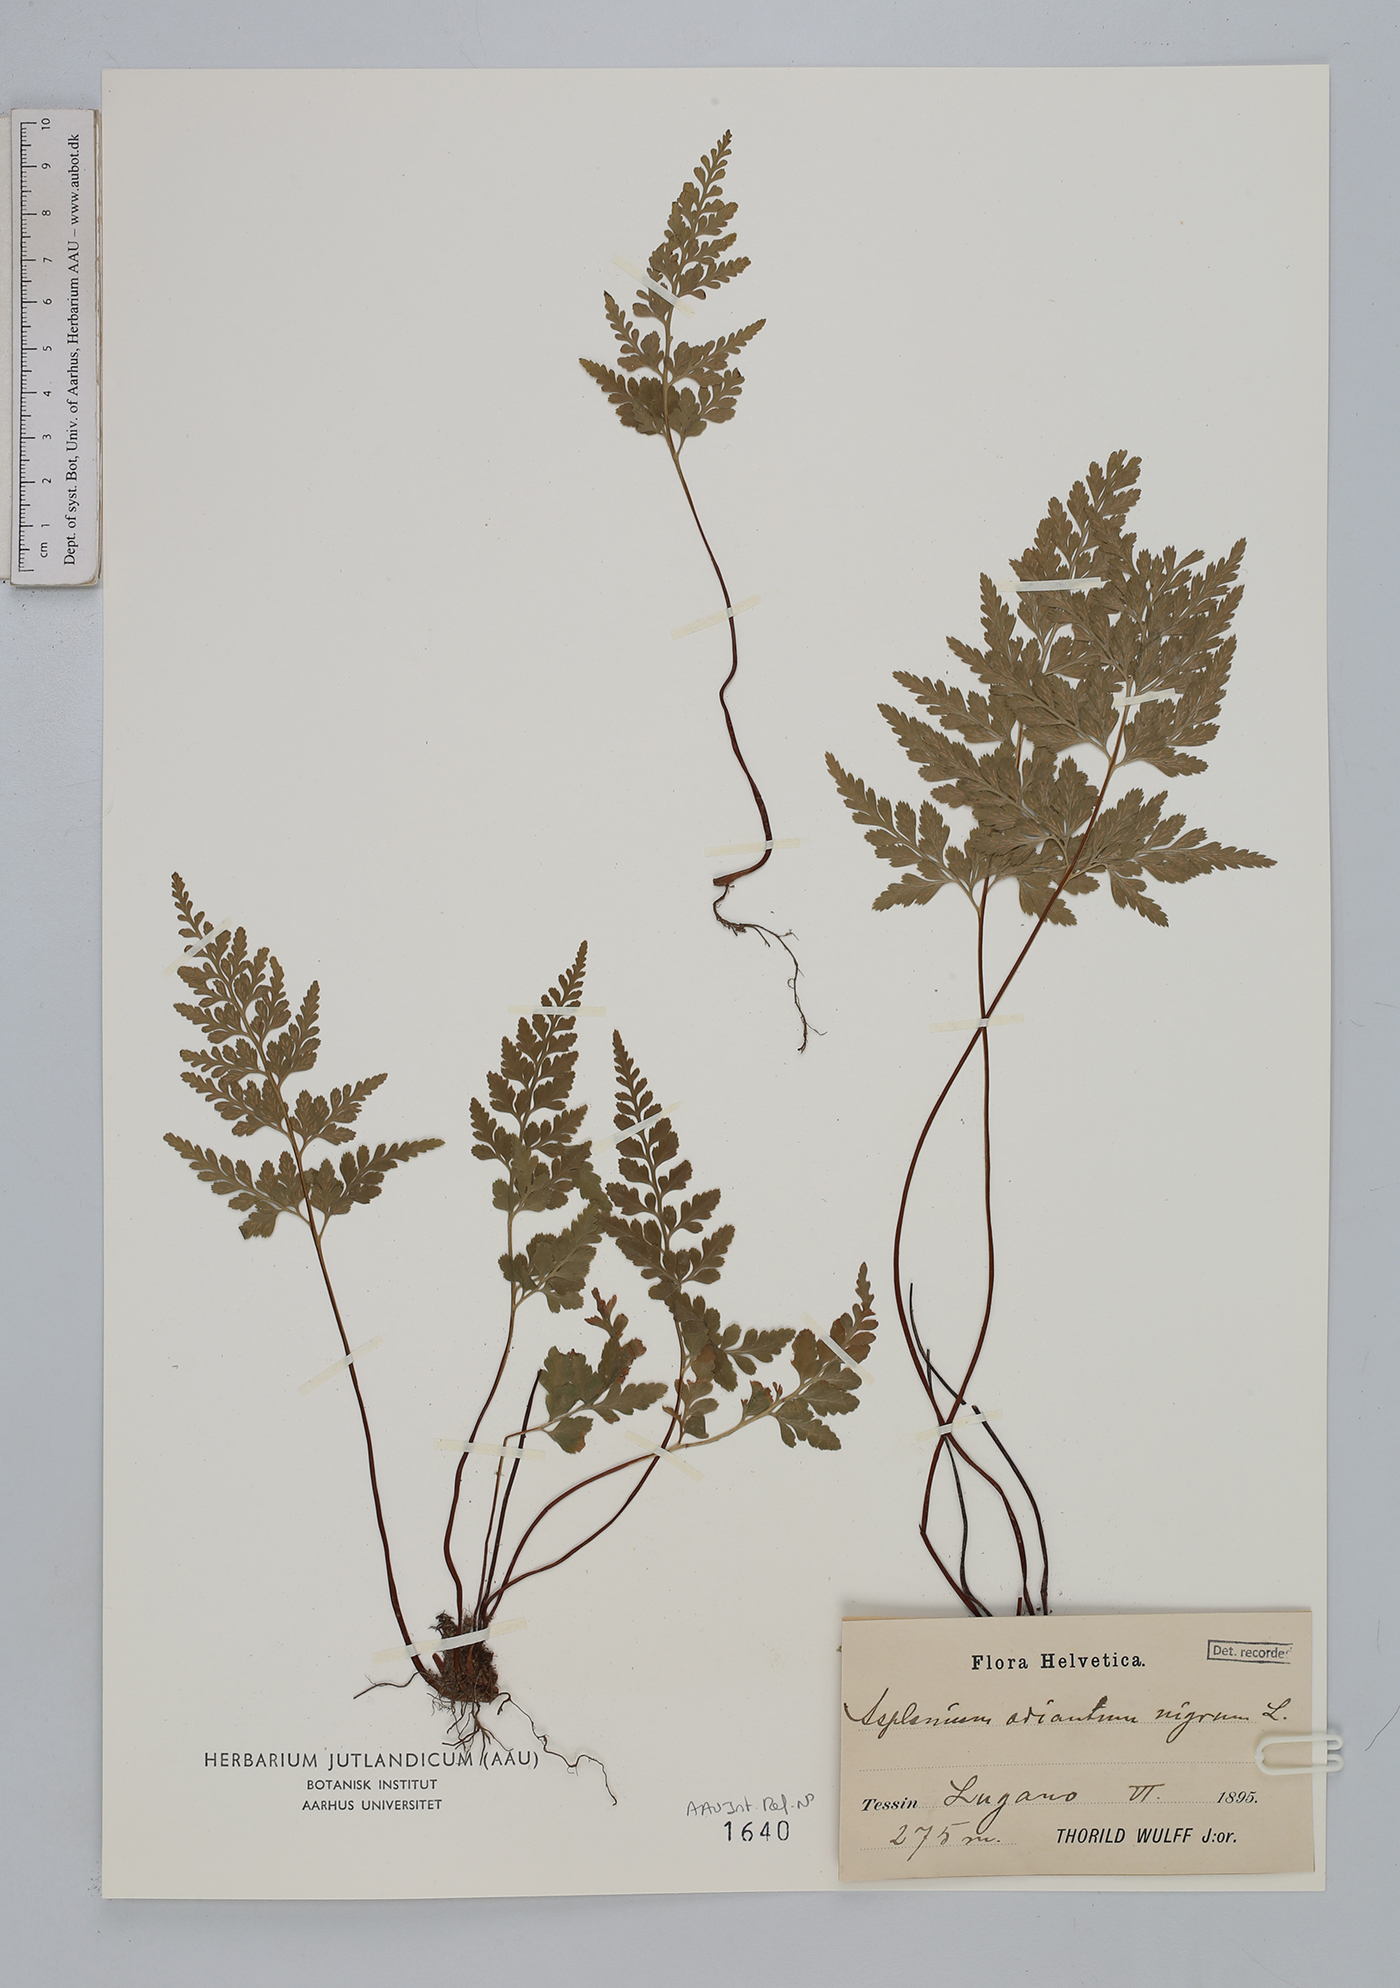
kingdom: Plantae
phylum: Tracheophyta
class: Polypodiopsida
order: Polypodiales
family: Aspleniaceae
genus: Asplenium
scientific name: Asplenium adiantum-nigrum
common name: Black spleenwort
